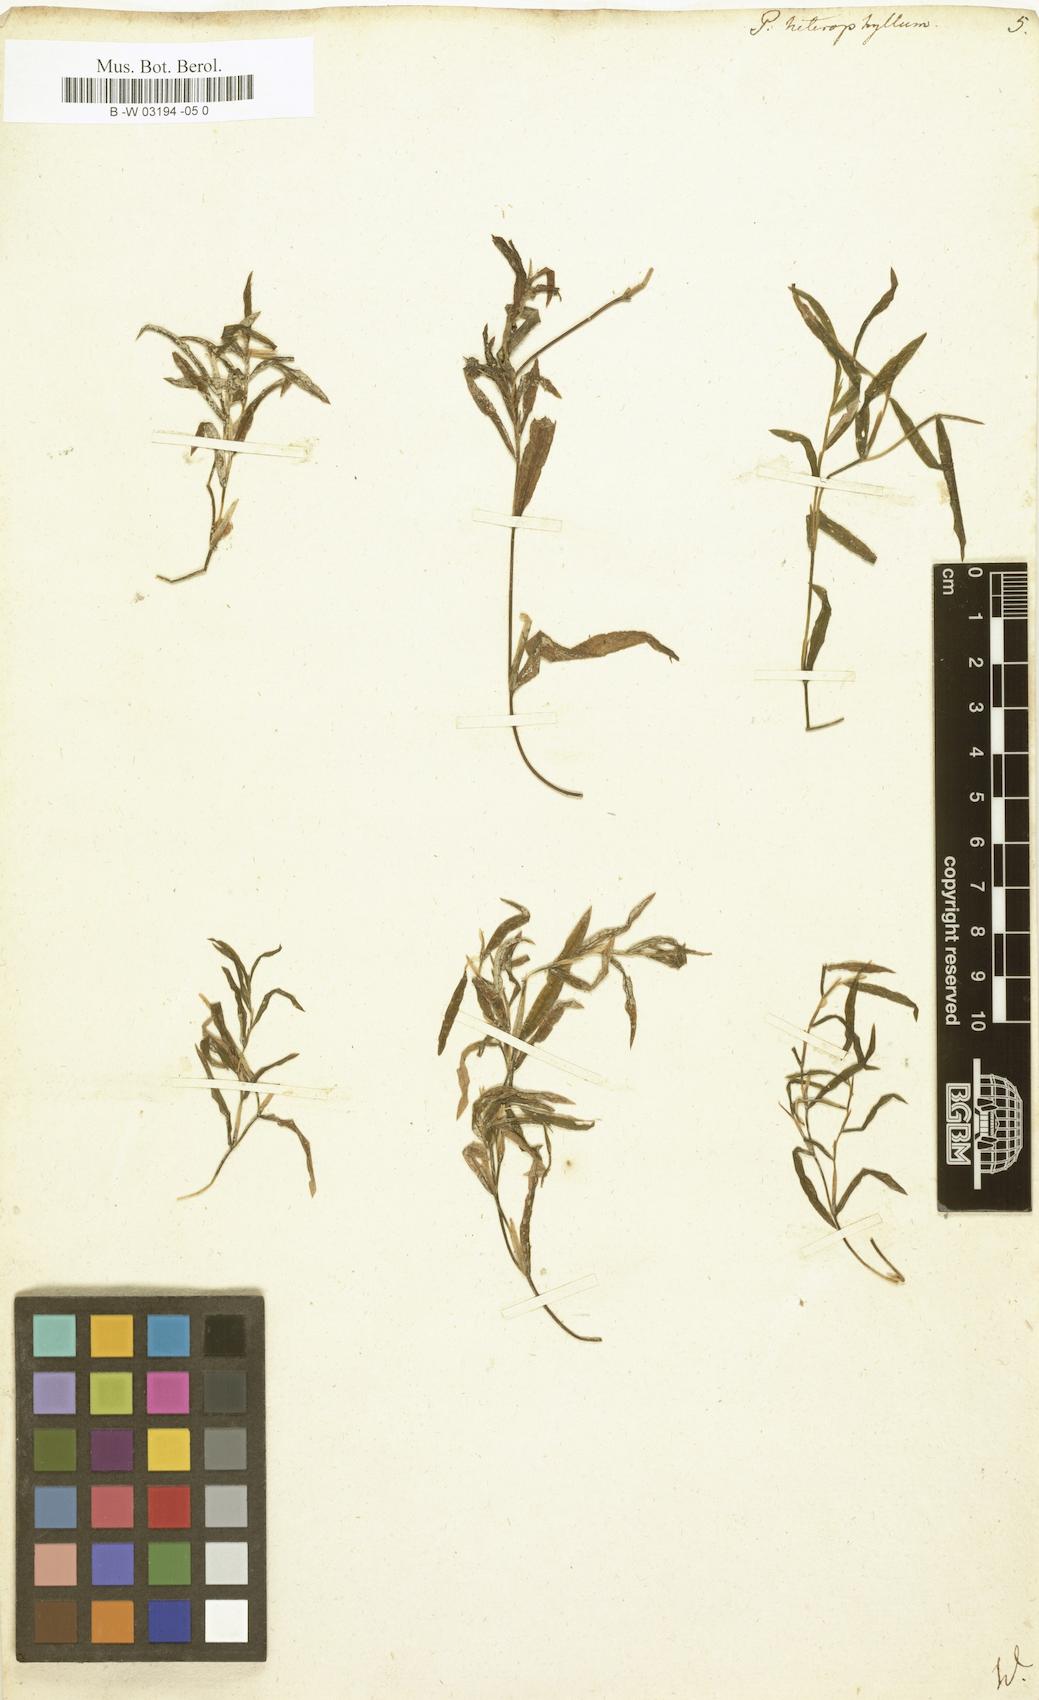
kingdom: Plantae
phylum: Tracheophyta
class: Liliopsida
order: Alismatales
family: Potamogetonaceae
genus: Potamogeton
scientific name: Potamogeton heterophyllus
